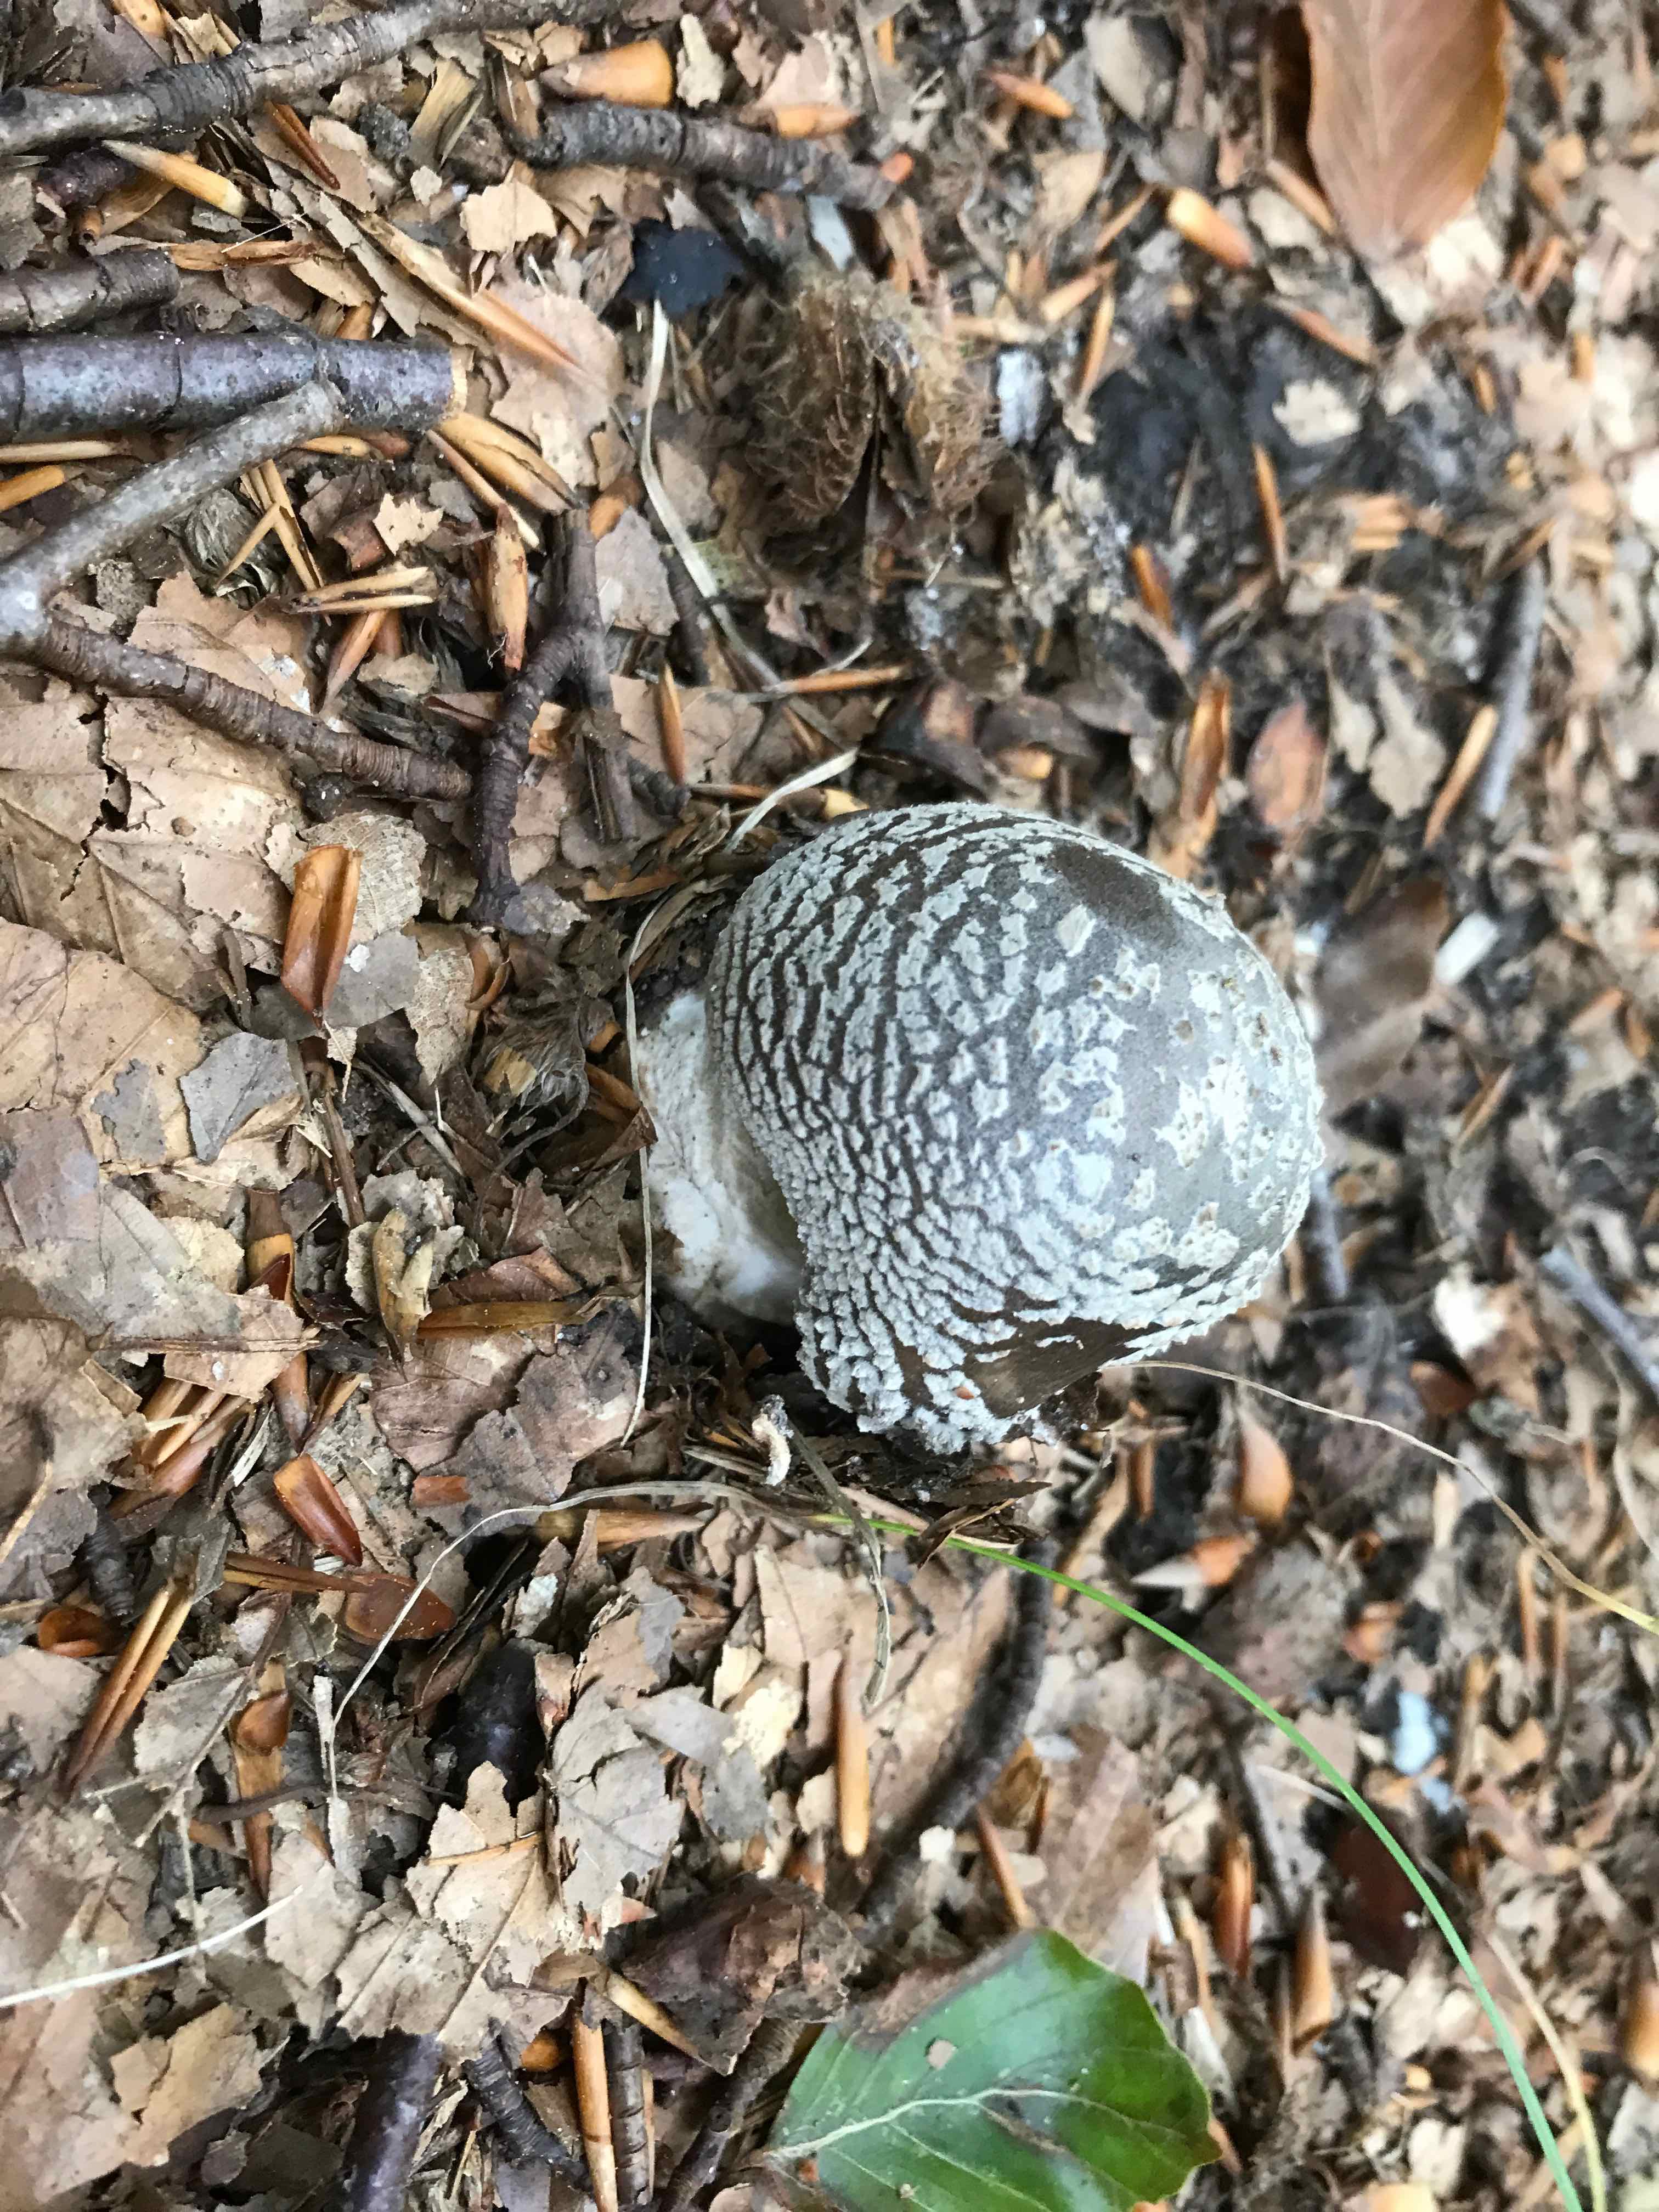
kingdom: Fungi
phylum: Basidiomycota
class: Agaricomycetes
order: Agaricales
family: Amanitaceae
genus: Amanita
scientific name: Amanita
